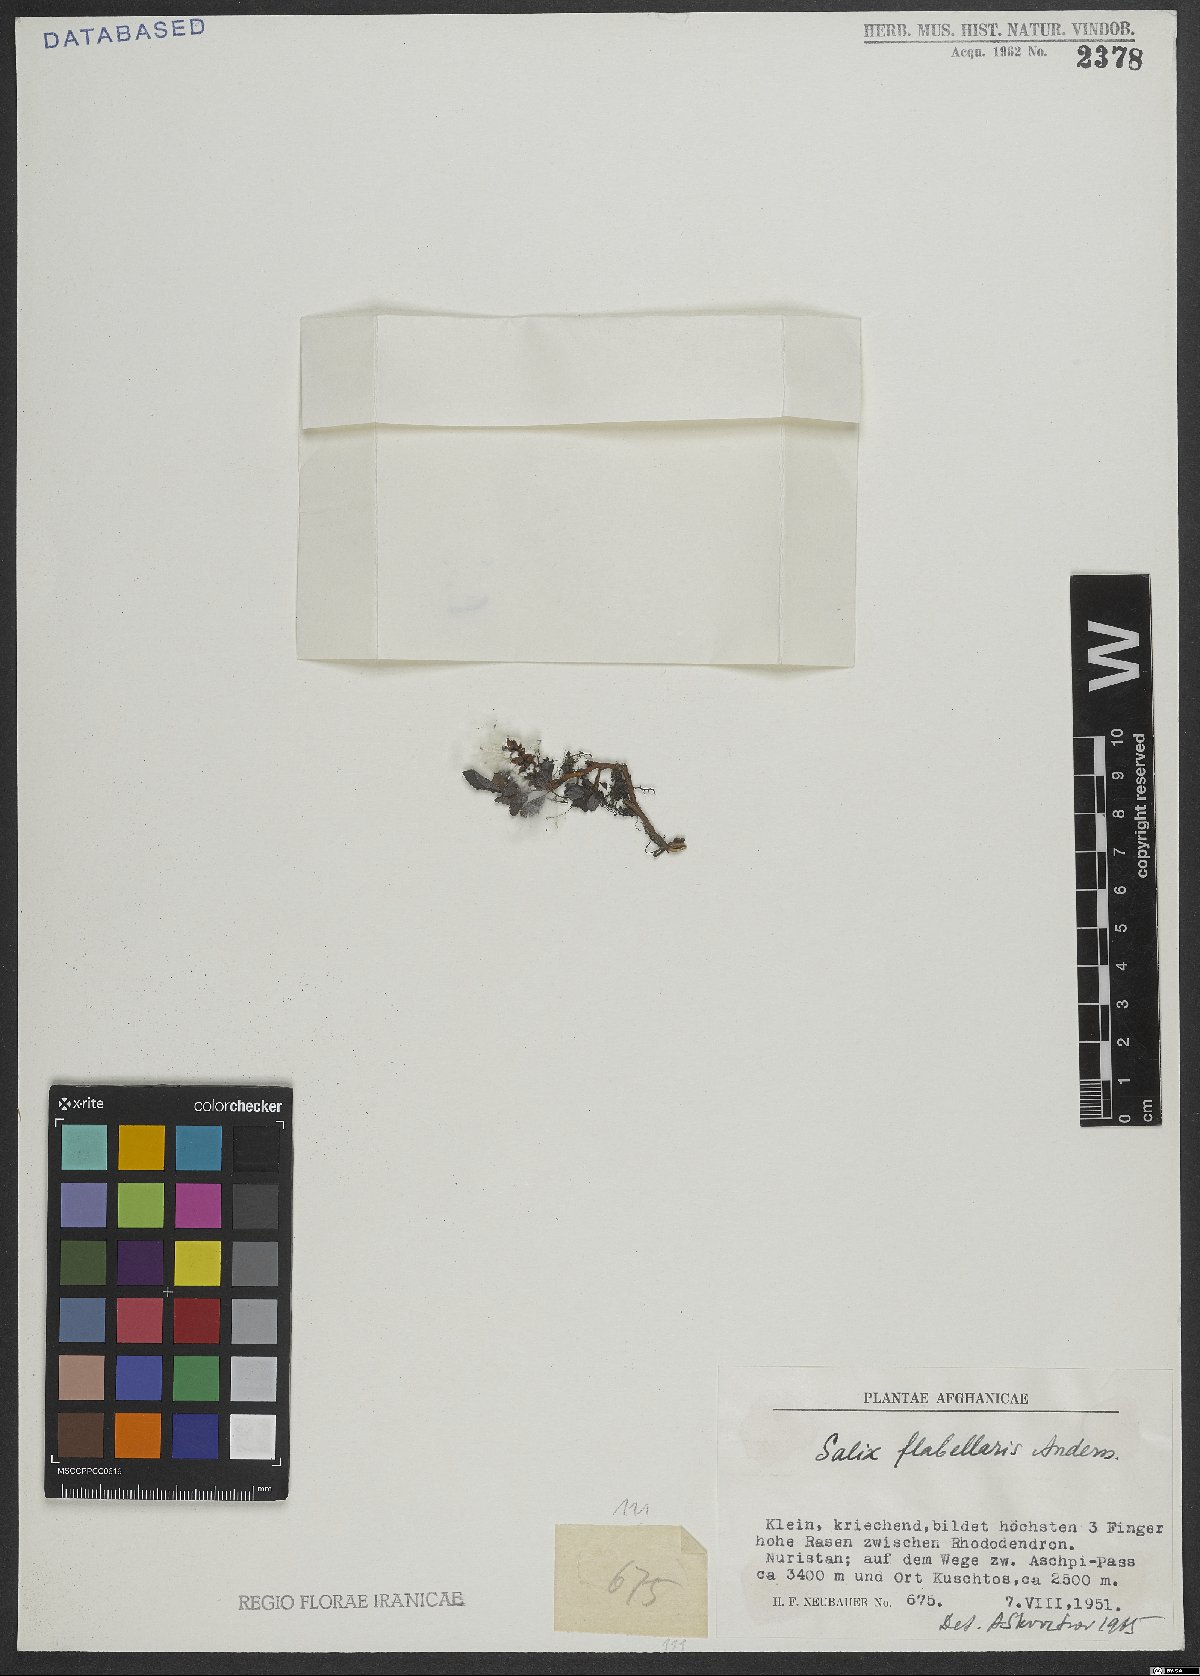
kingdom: Plantae
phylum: Tracheophyta
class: Magnoliopsida
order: Malpighiales
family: Salicaceae
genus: Salix
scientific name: Salix flabellaris
